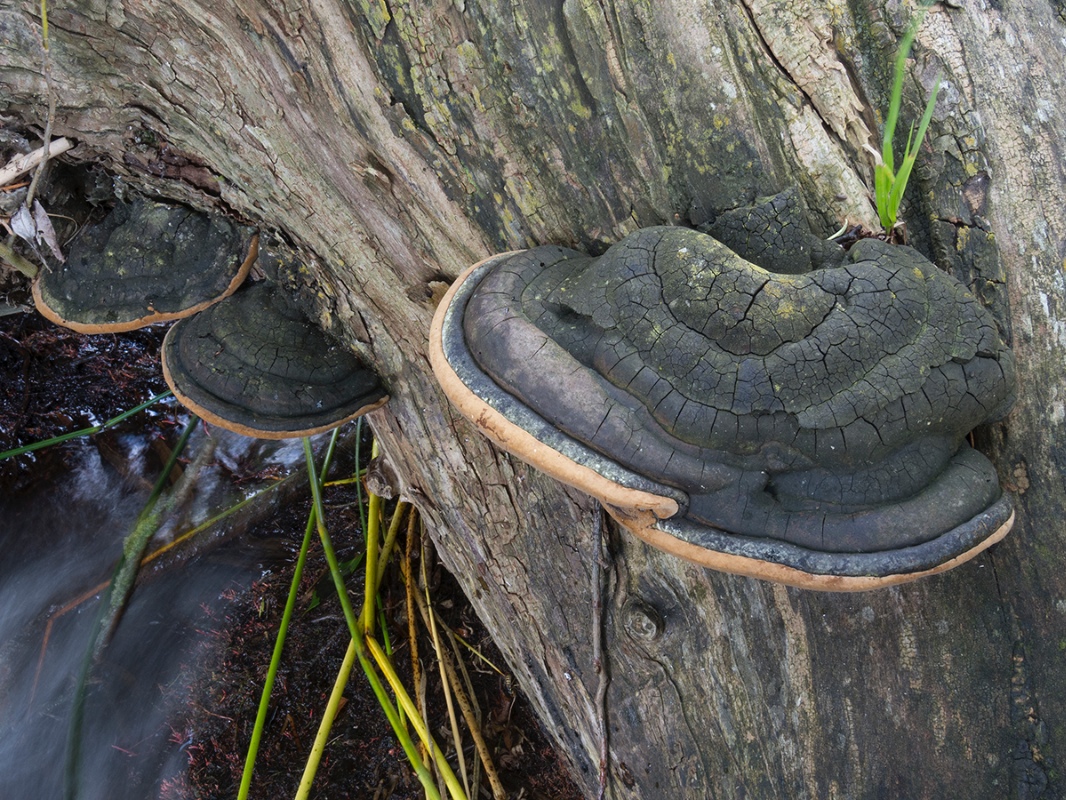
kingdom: Fungi
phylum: Basidiomycota
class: Agaricomycetes
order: Hymenochaetales
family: Hymenochaetaceae
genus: Phellinus
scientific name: Phellinus igniarius
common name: almindelig ildporesvamp
